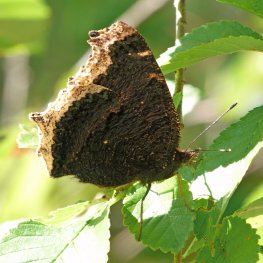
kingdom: Animalia
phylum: Arthropoda
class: Insecta
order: Lepidoptera
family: Nymphalidae
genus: Nymphalis
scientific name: Nymphalis antiopa
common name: Mourning Cloak
